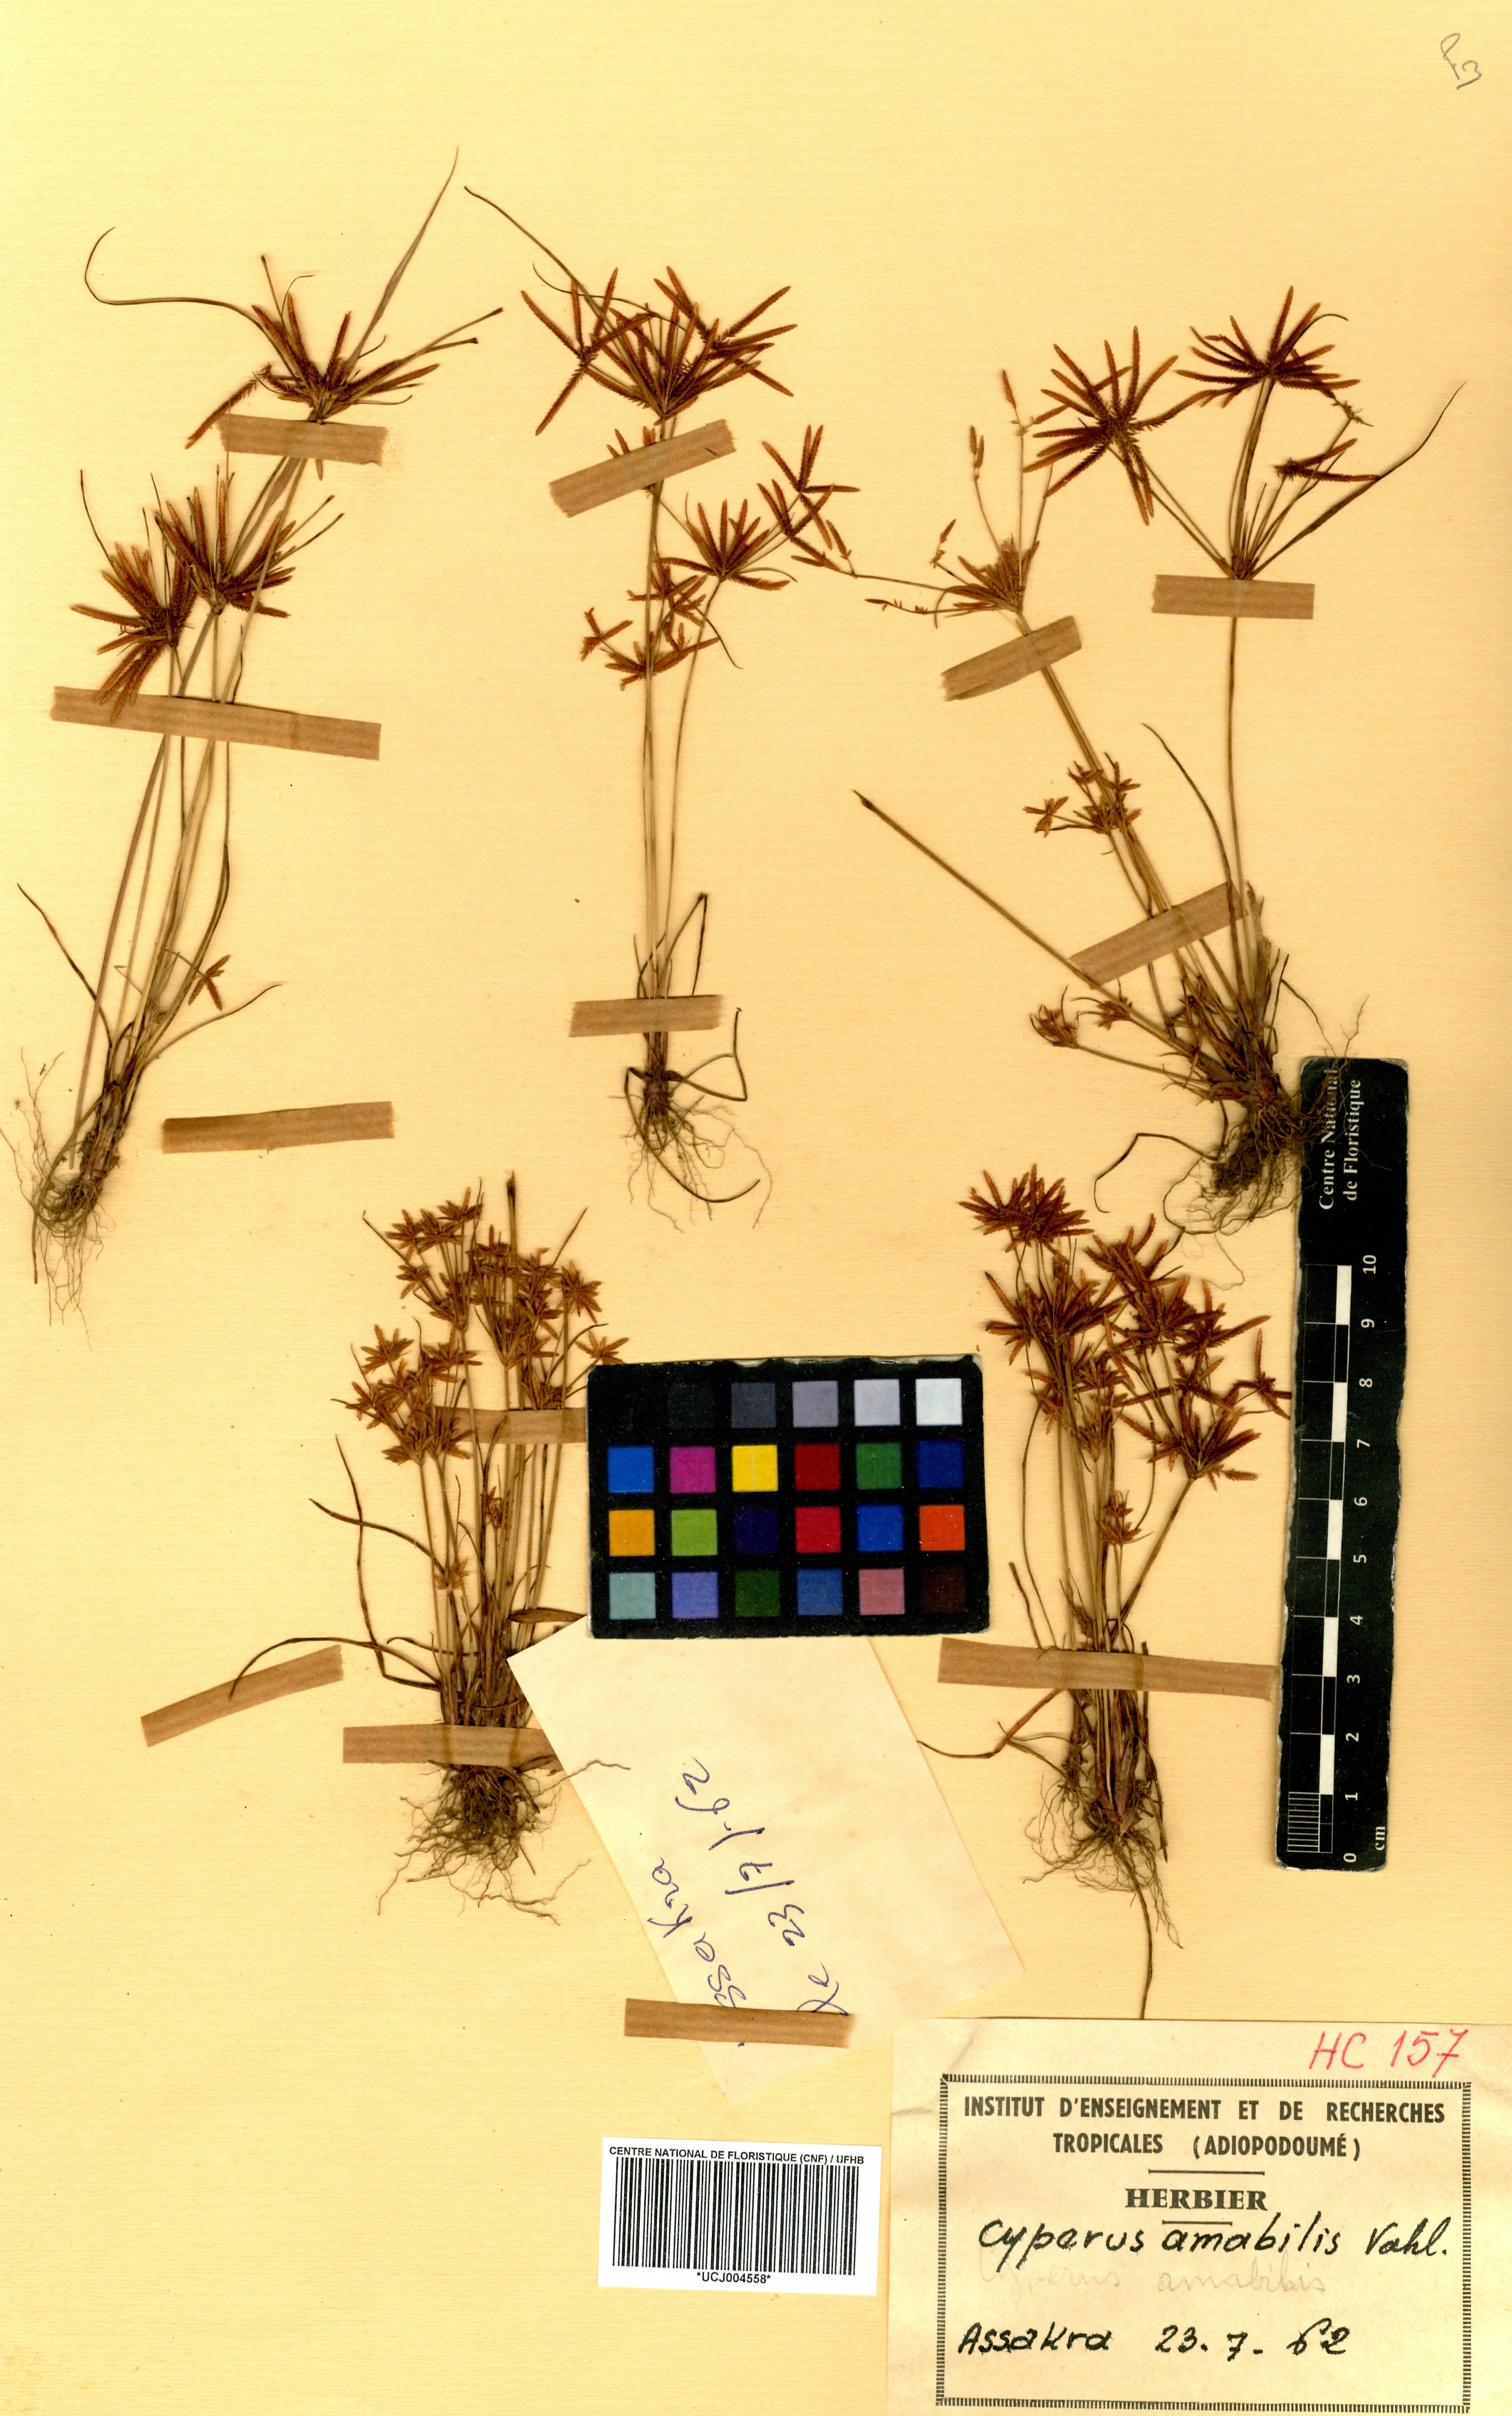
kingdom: Plantae
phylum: Tracheophyta
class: Liliopsida
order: Poales
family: Cyperaceae
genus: Cyperus
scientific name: Cyperus amabilis
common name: Foothill flat sedge
